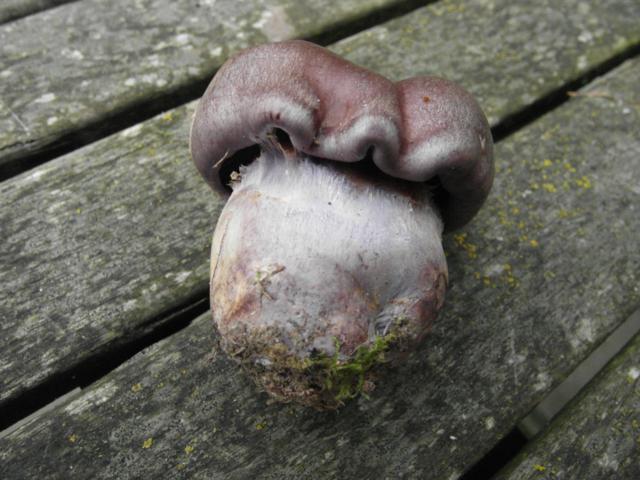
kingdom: Fungi
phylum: Basidiomycota
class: Agaricomycetes
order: Agaricales
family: Cortinariaceae
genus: Thaxterogaster
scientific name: Thaxterogaster purpurascens
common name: purpurbrun slørhat
